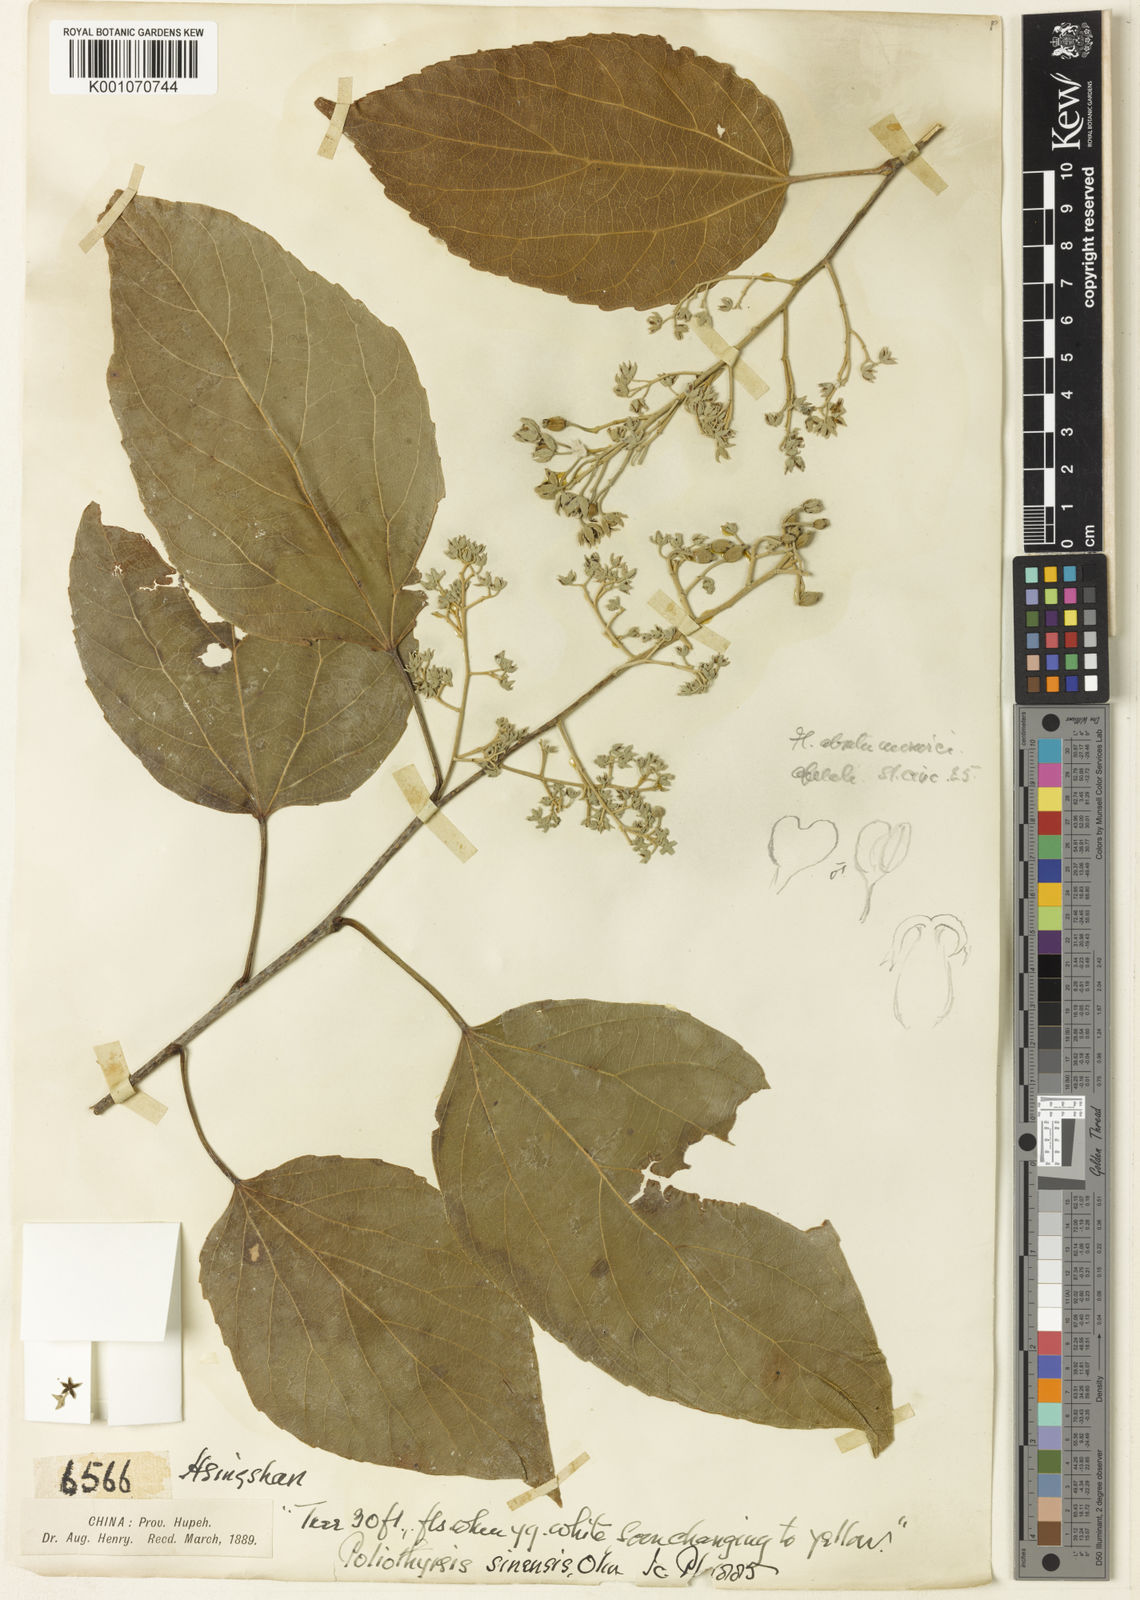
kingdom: Plantae
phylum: Tracheophyta
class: Magnoliopsida
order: Malpighiales
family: Salicaceae
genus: Poliothyrsis
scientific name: Poliothyrsis
